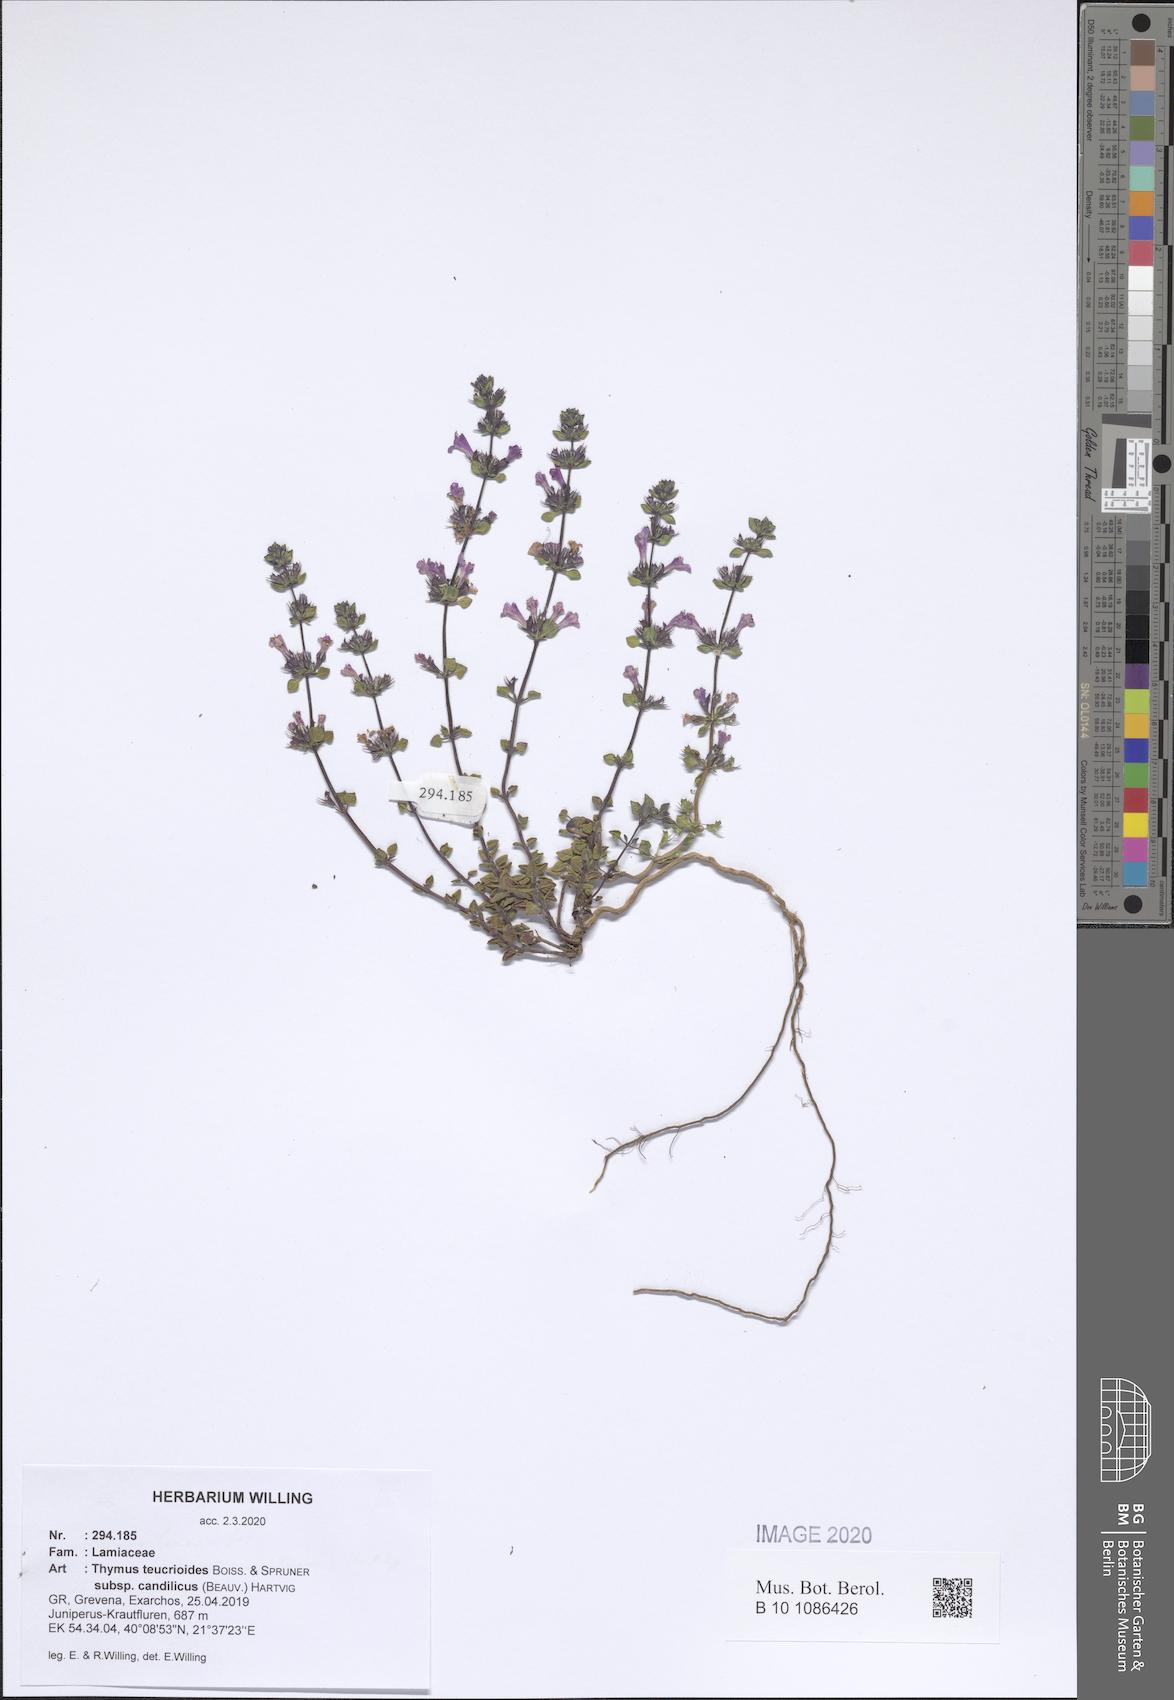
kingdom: Plantae
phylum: Tracheophyta
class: Magnoliopsida
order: Lamiales
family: Lamiaceae
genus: Thymus
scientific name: Thymus teucrioides
